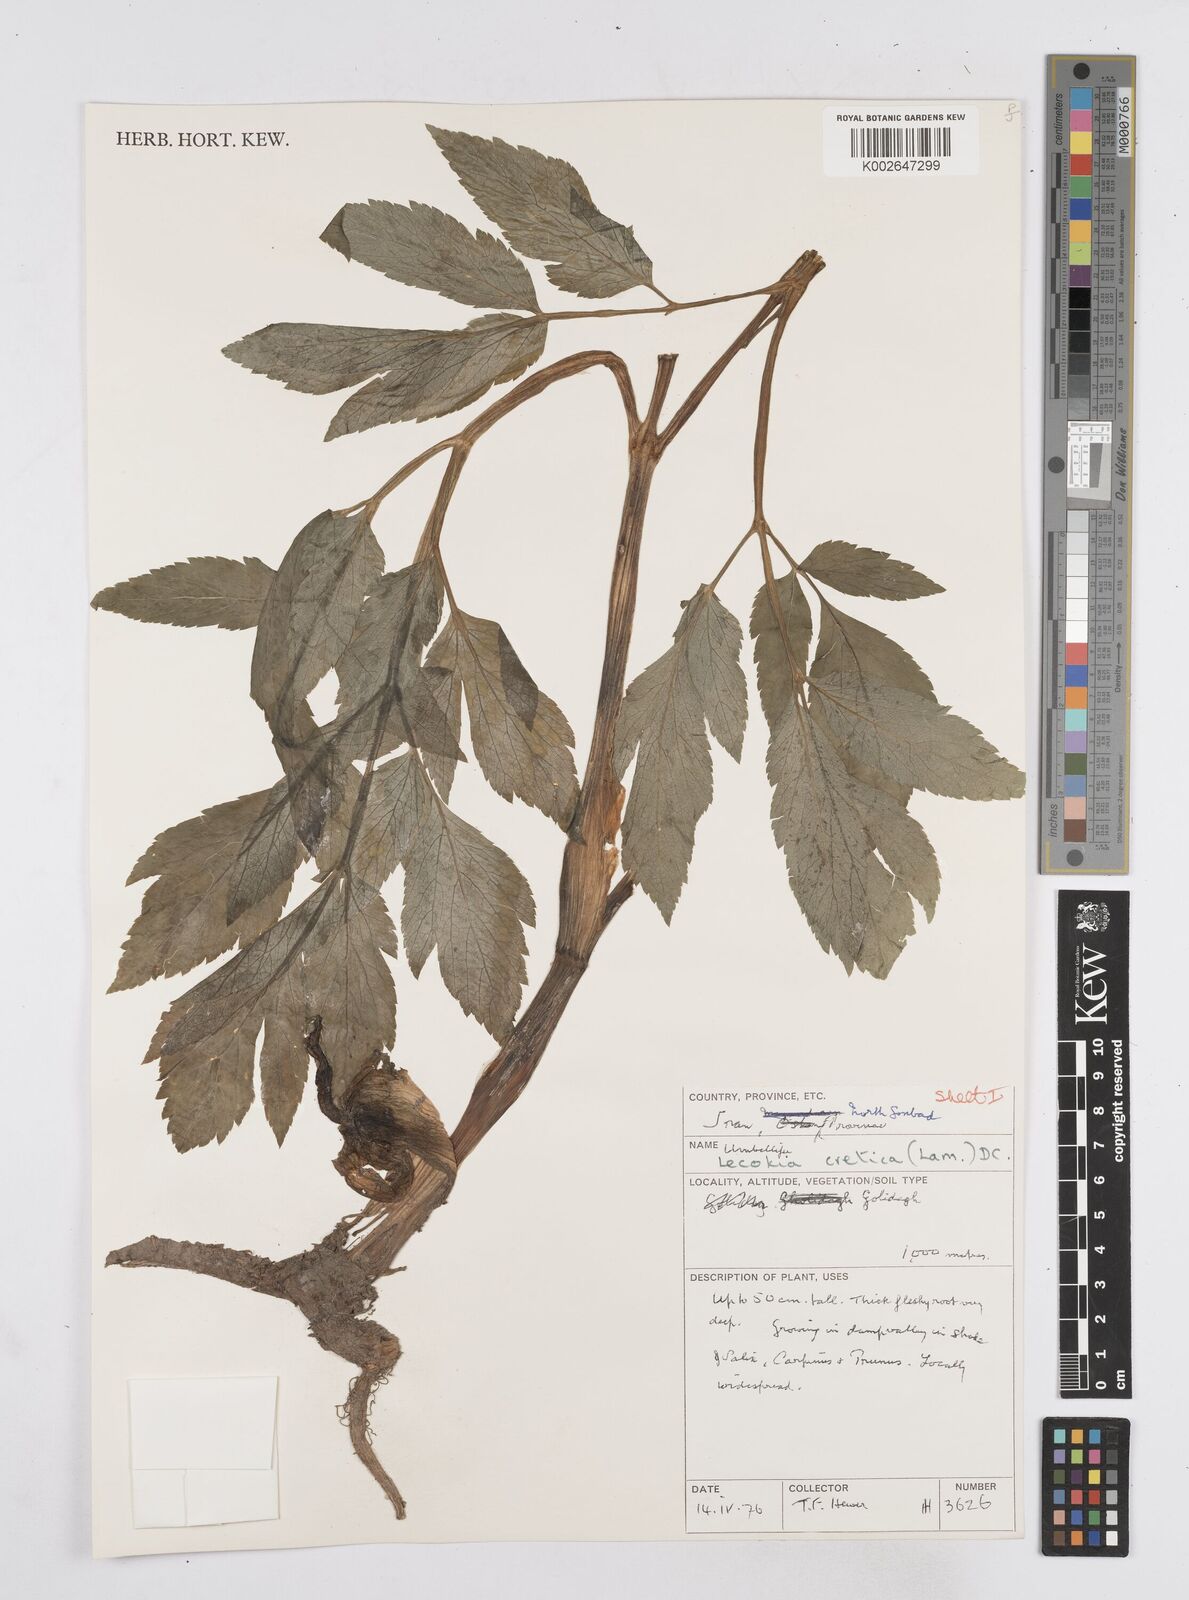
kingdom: Plantae
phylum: Tracheophyta
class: Magnoliopsida
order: Apiales
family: Apiaceae
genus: Lecokia
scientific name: Lecokia cretica
